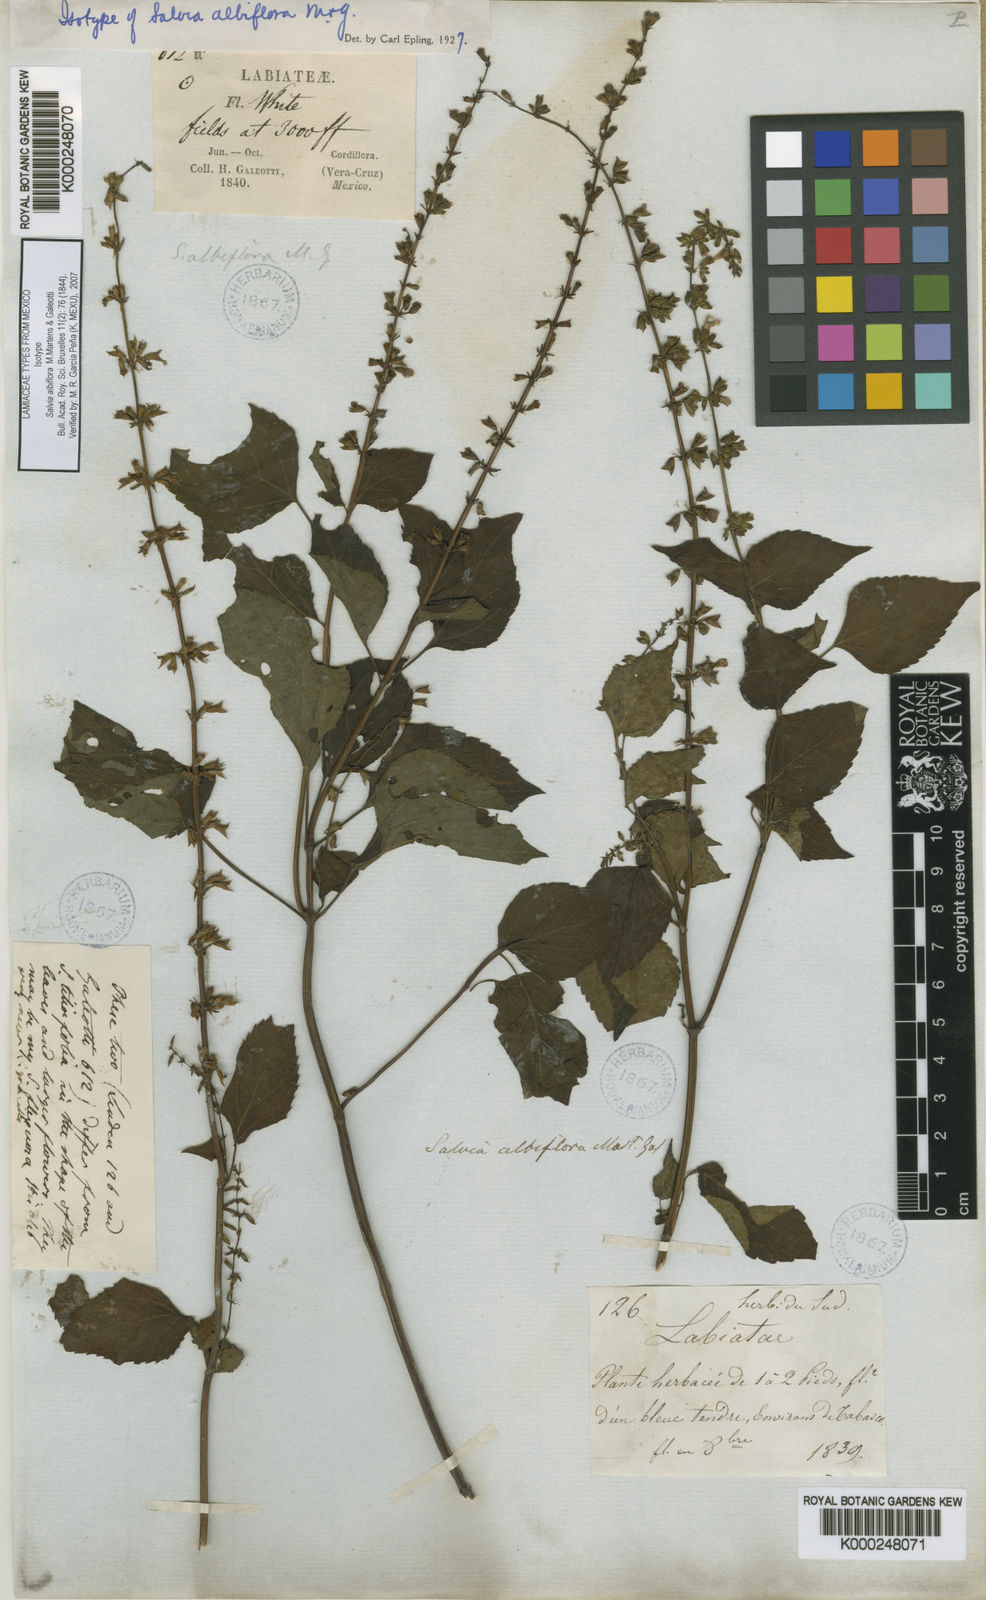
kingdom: Plantae
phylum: Tracheophyta
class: Magnoliopsida
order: Lamiales
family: Lamiaceae
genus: Salvia
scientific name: Salvia albiflora
